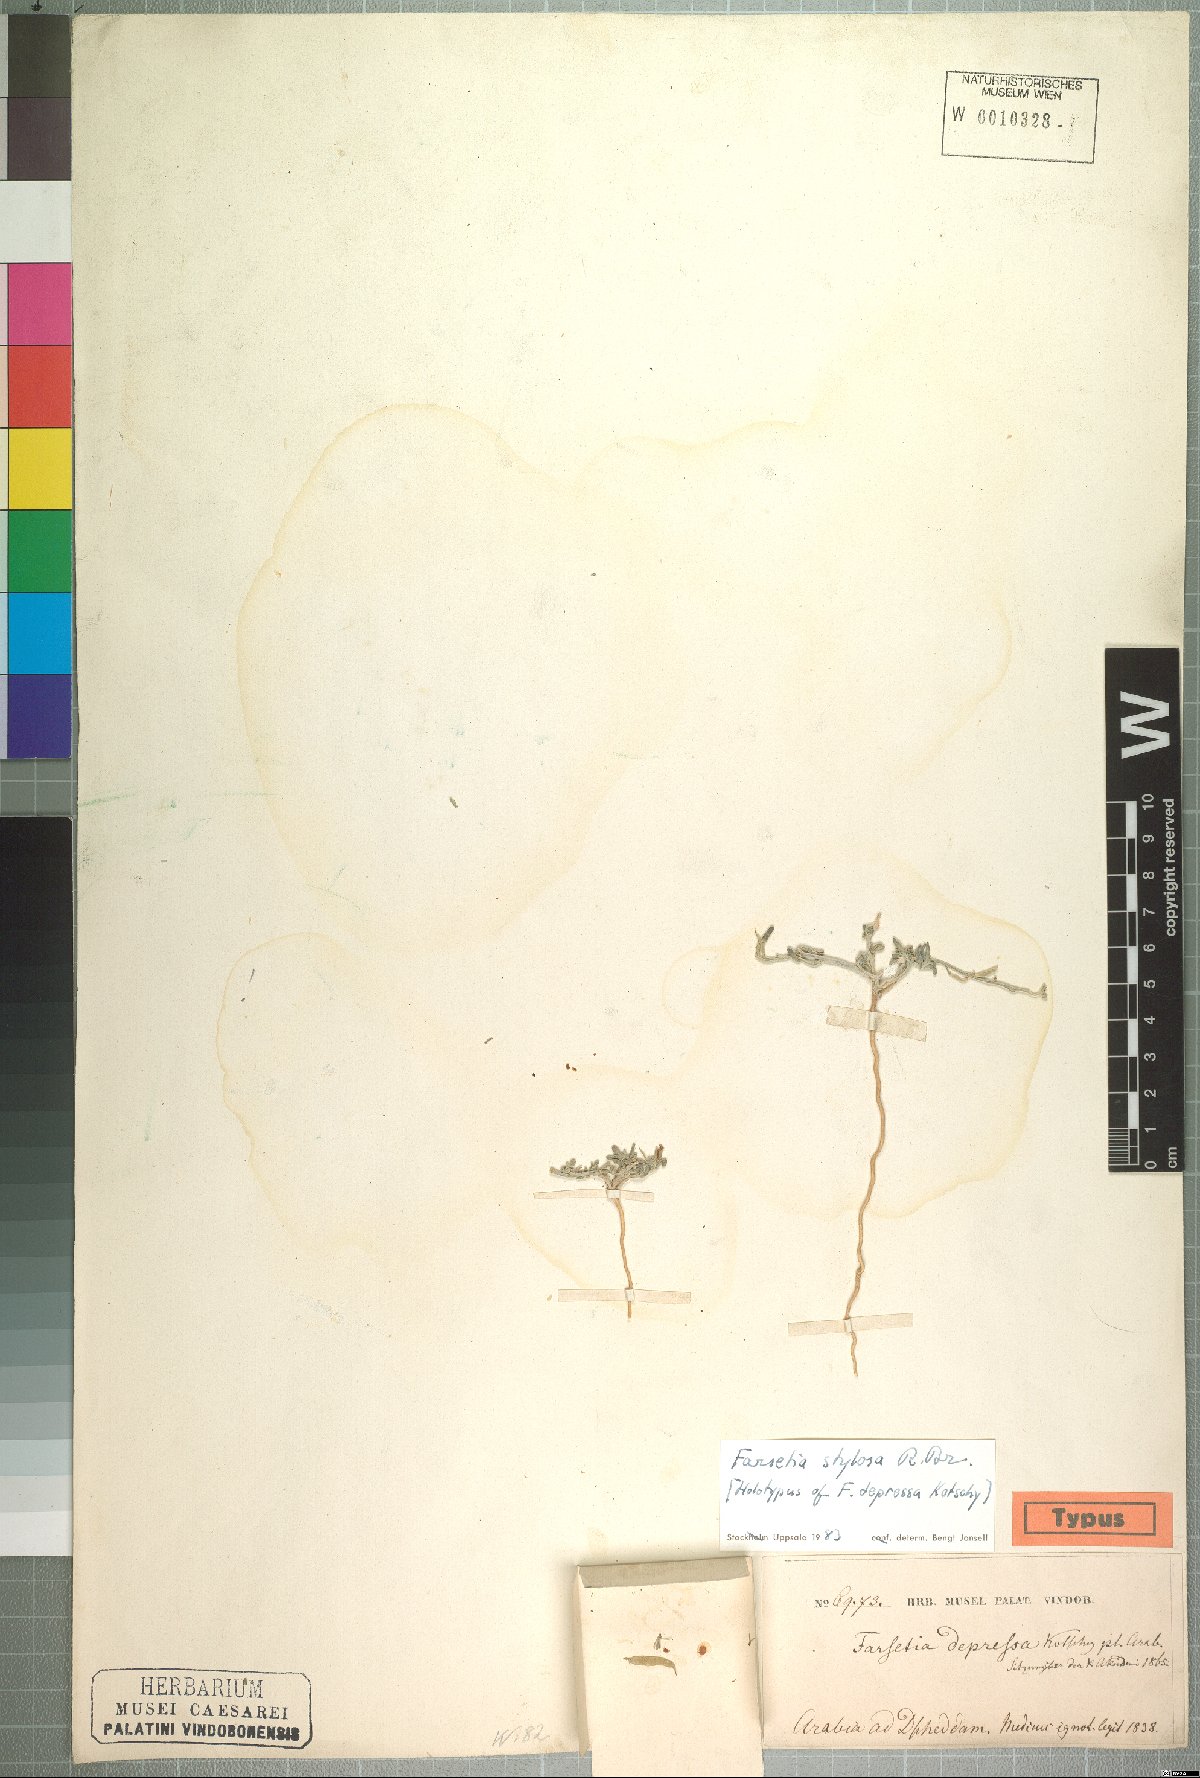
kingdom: Plantae
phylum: Tracheophyta
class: Magnoliopsida
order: Brassicales
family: Brassicaceae
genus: Farsetia
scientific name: Farsetia stylosa
